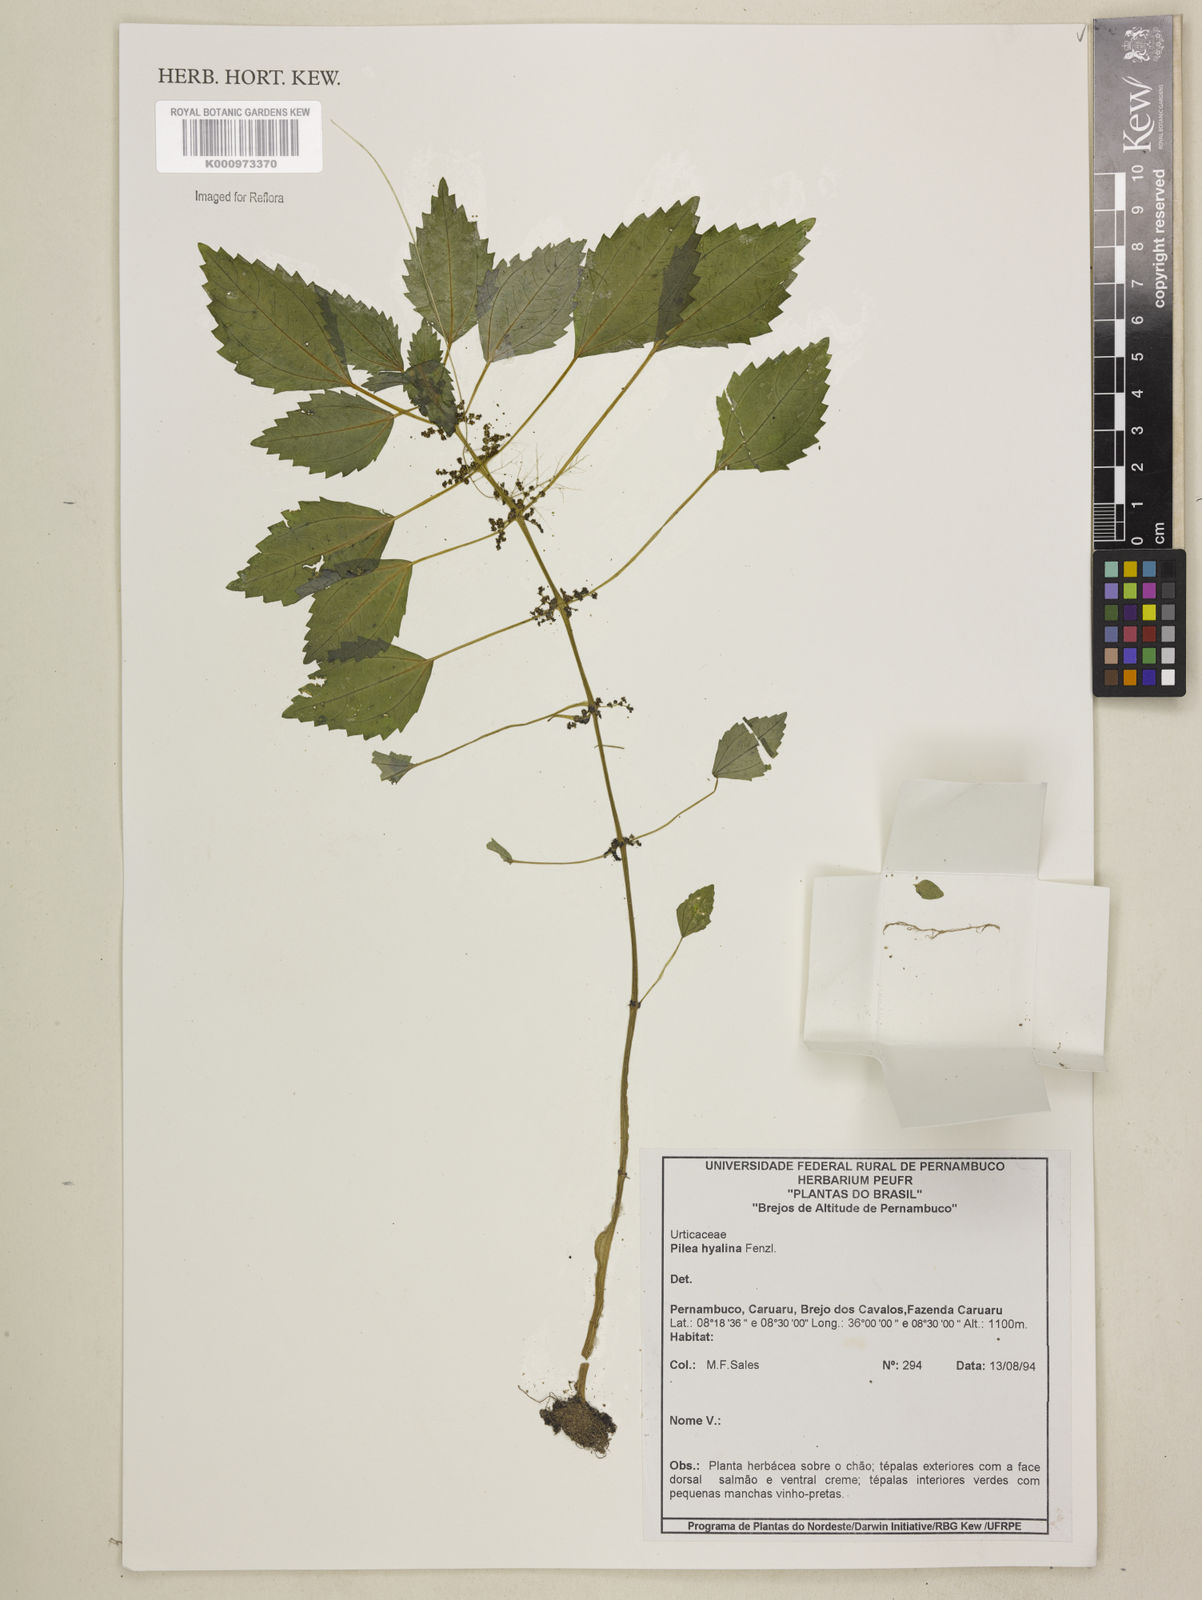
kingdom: Plantae
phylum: Tracheophyta
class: Magnoliopsida
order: Rosales
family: Urticaceae
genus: Pilea
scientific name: Pilea hyalina
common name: Virdrillo
